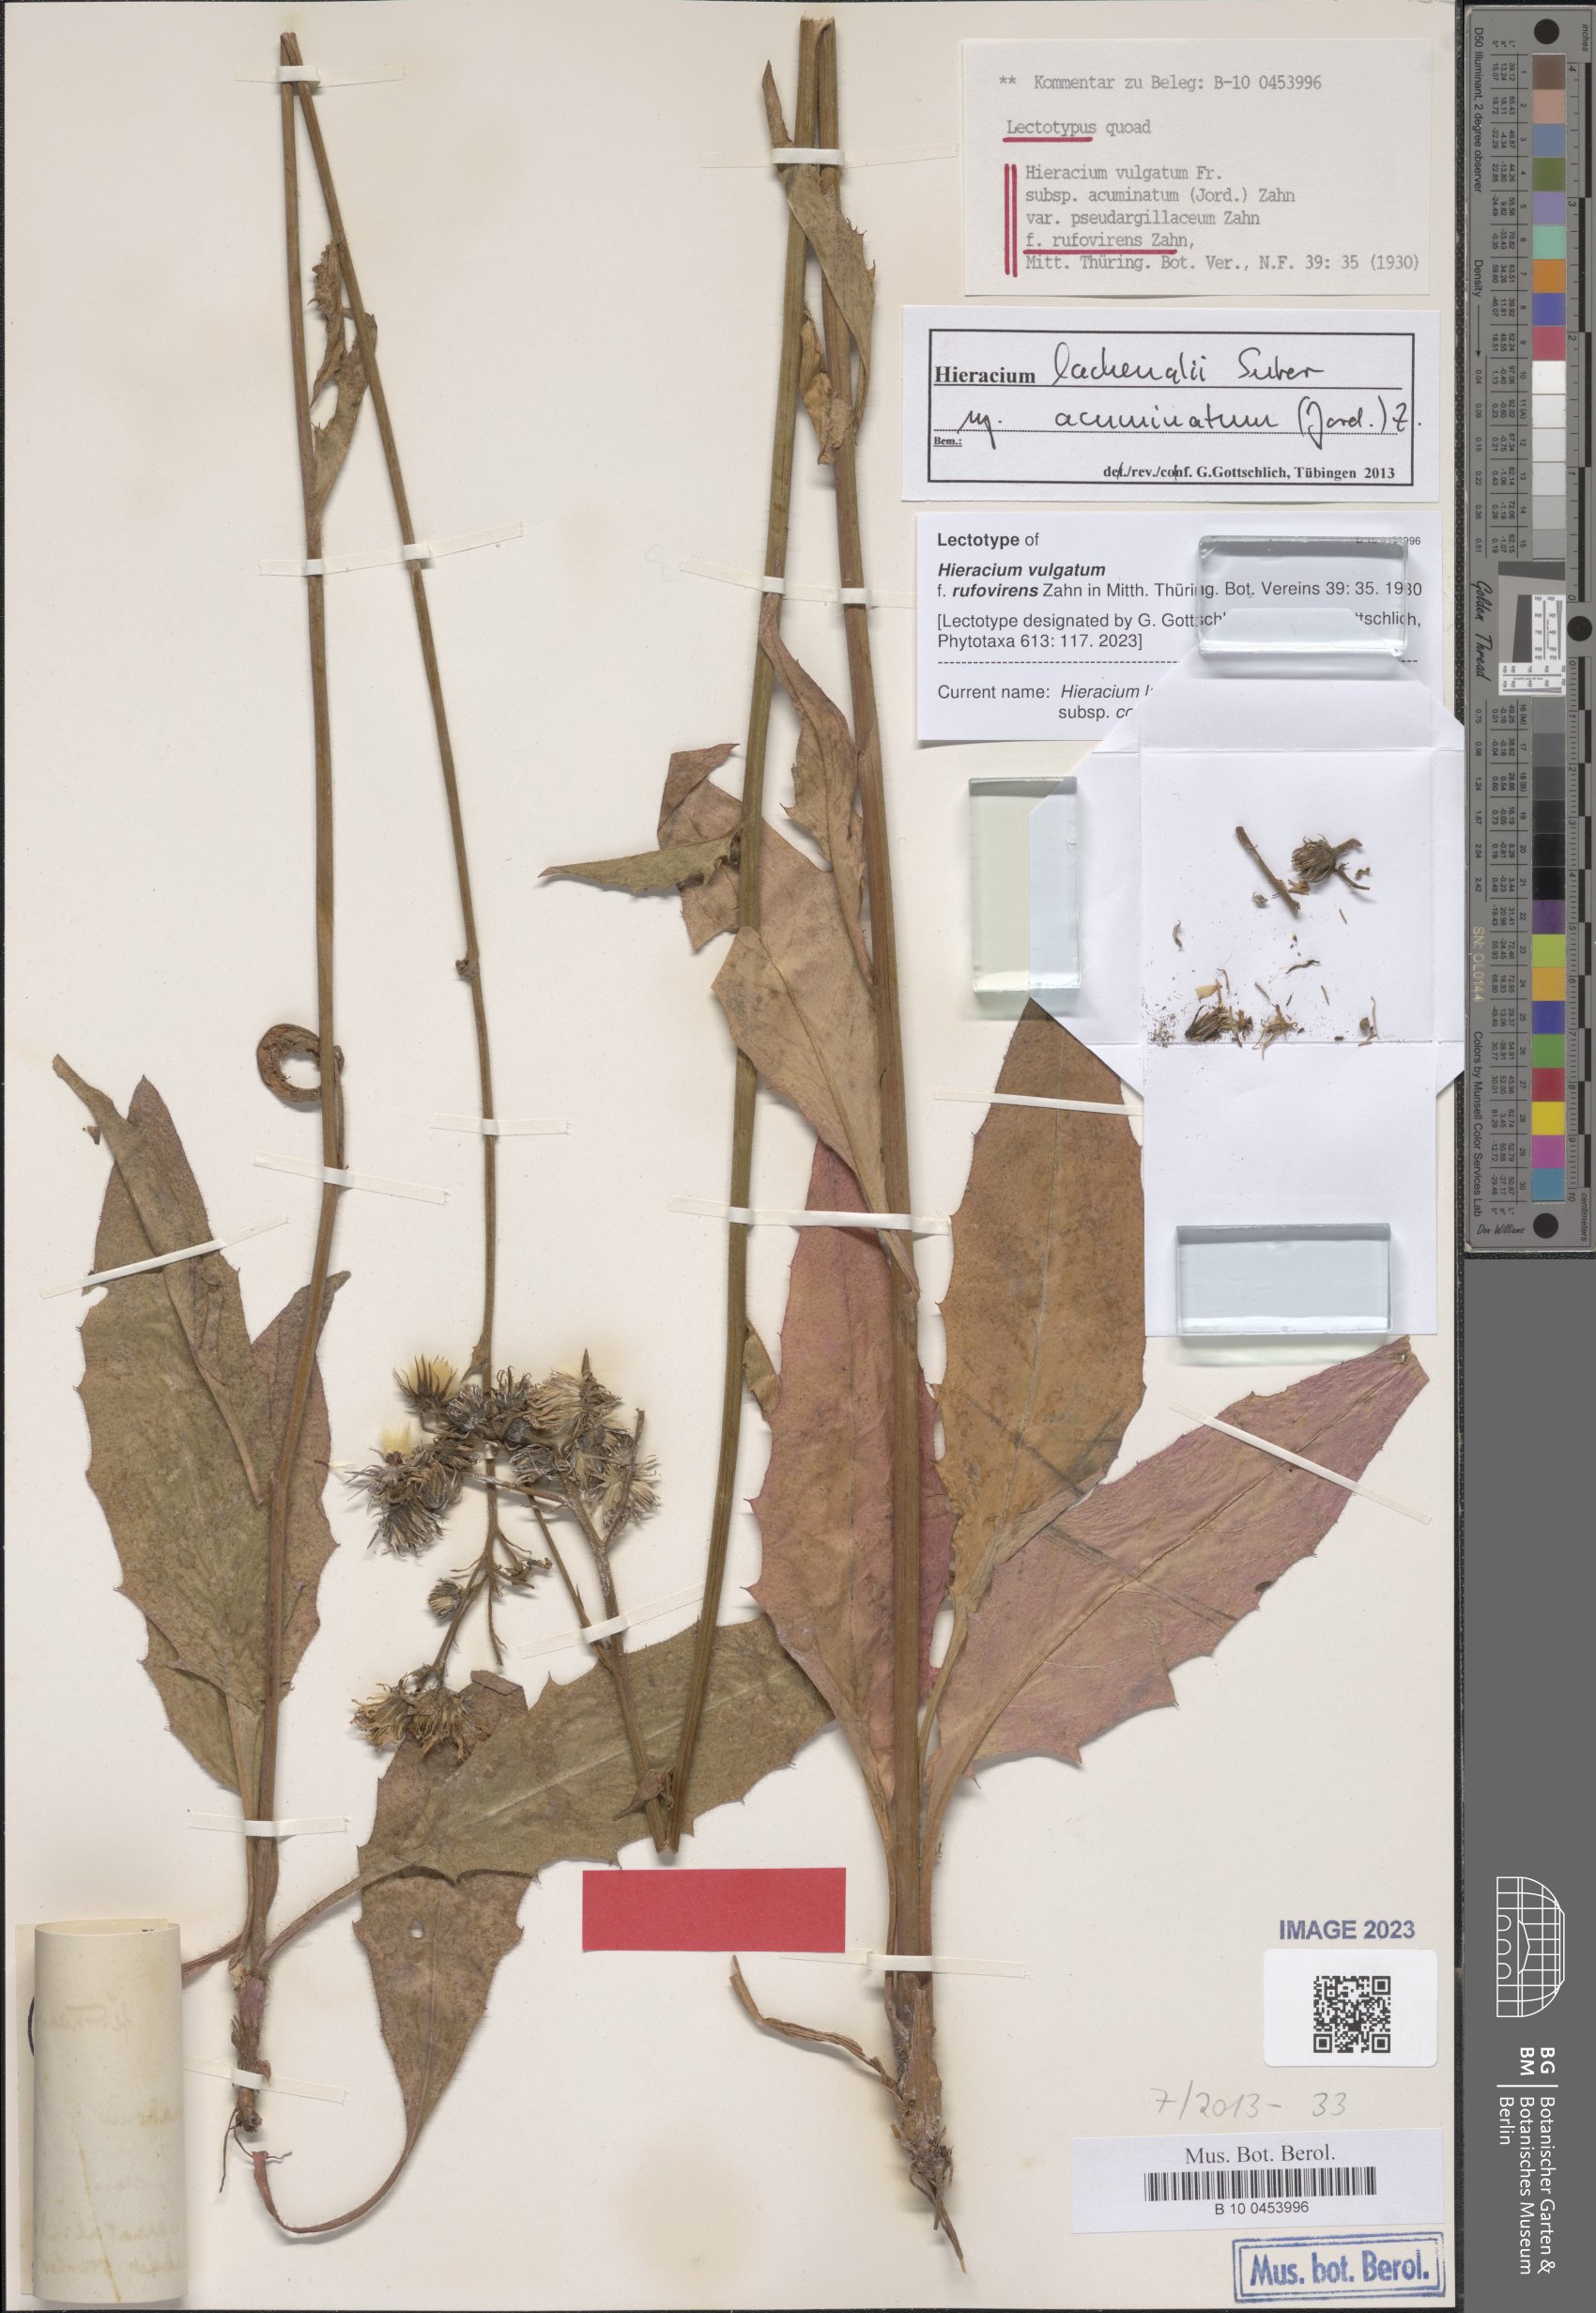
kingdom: Plantae
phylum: Tracheophyta
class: Magnoliopsida
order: Asterales
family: Asteraceae
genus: Hieracium
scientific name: Hieracium vulgatum
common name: Common hawkweed
